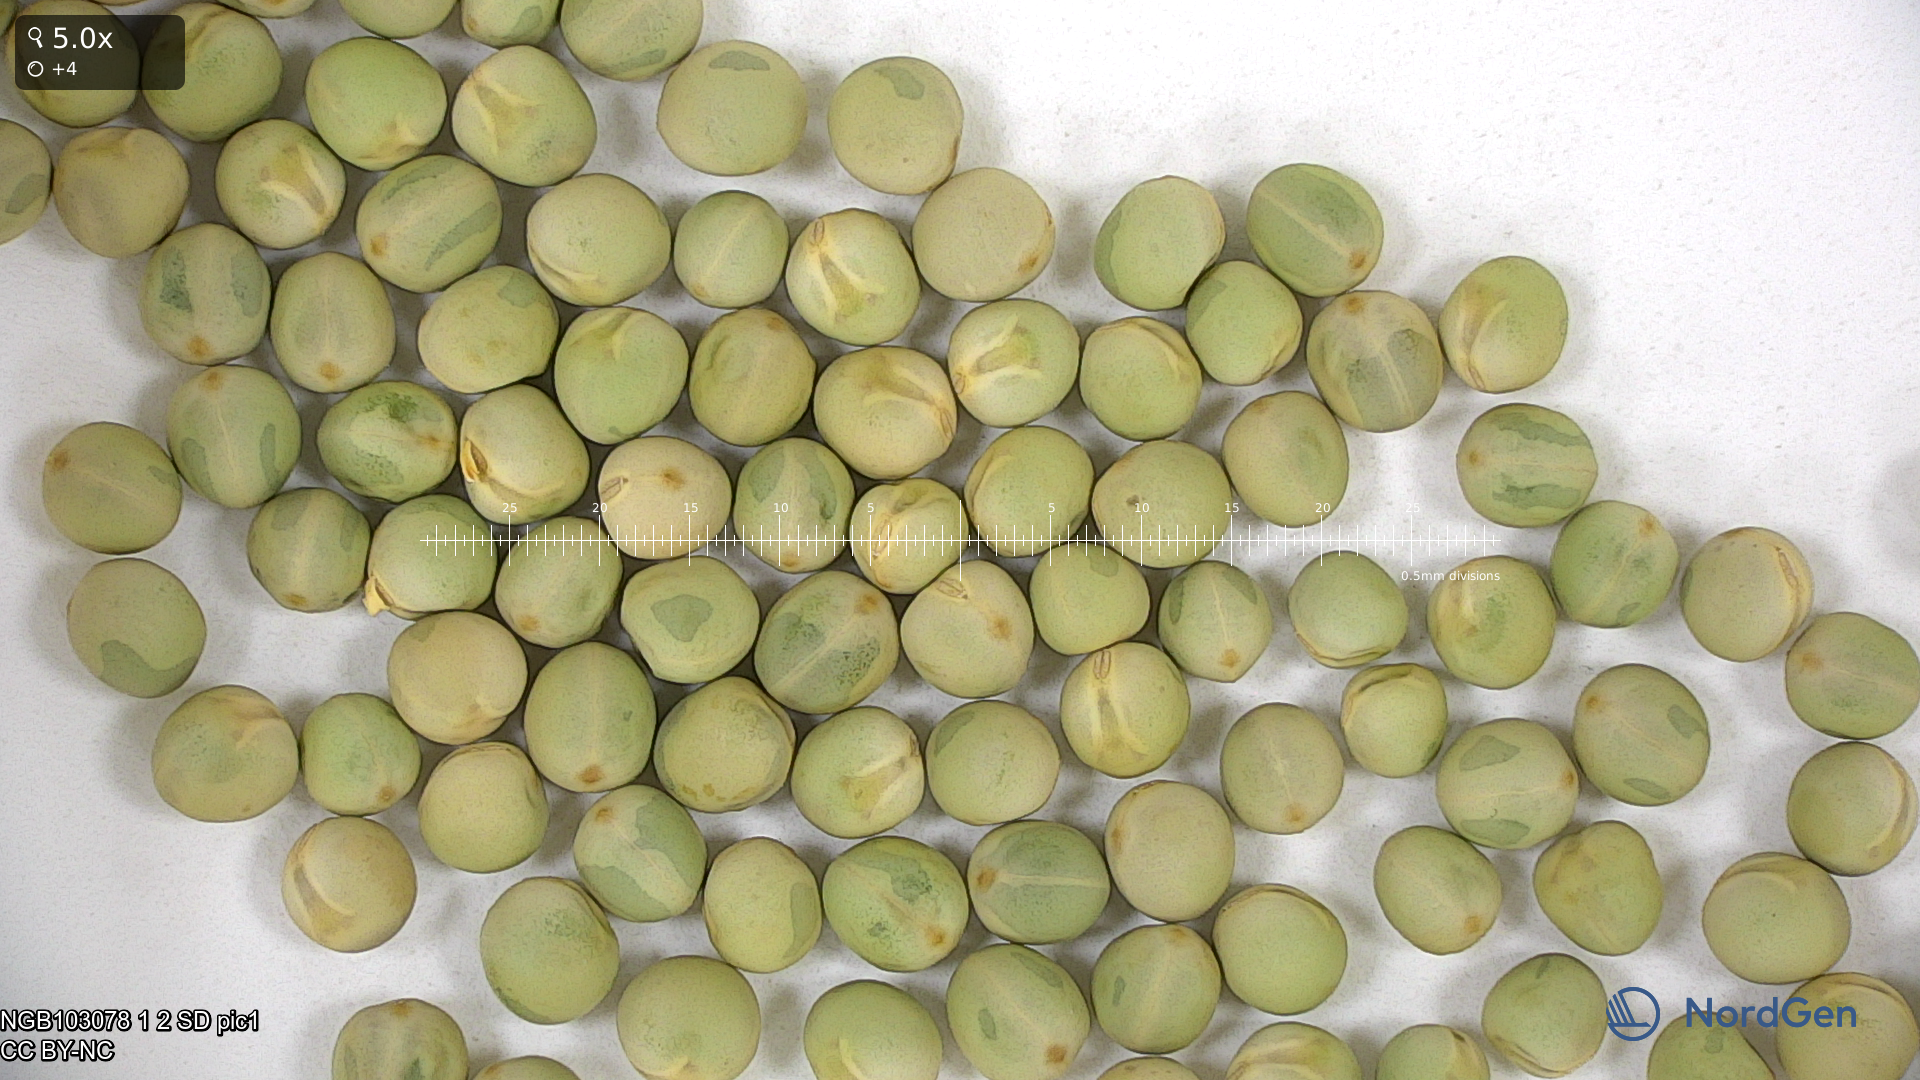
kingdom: Plantae
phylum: Tracheophyta
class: Magnoliopsida
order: Fabales
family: Fabaceae
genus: Lathyrus
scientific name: Lathyrus oleraceus
